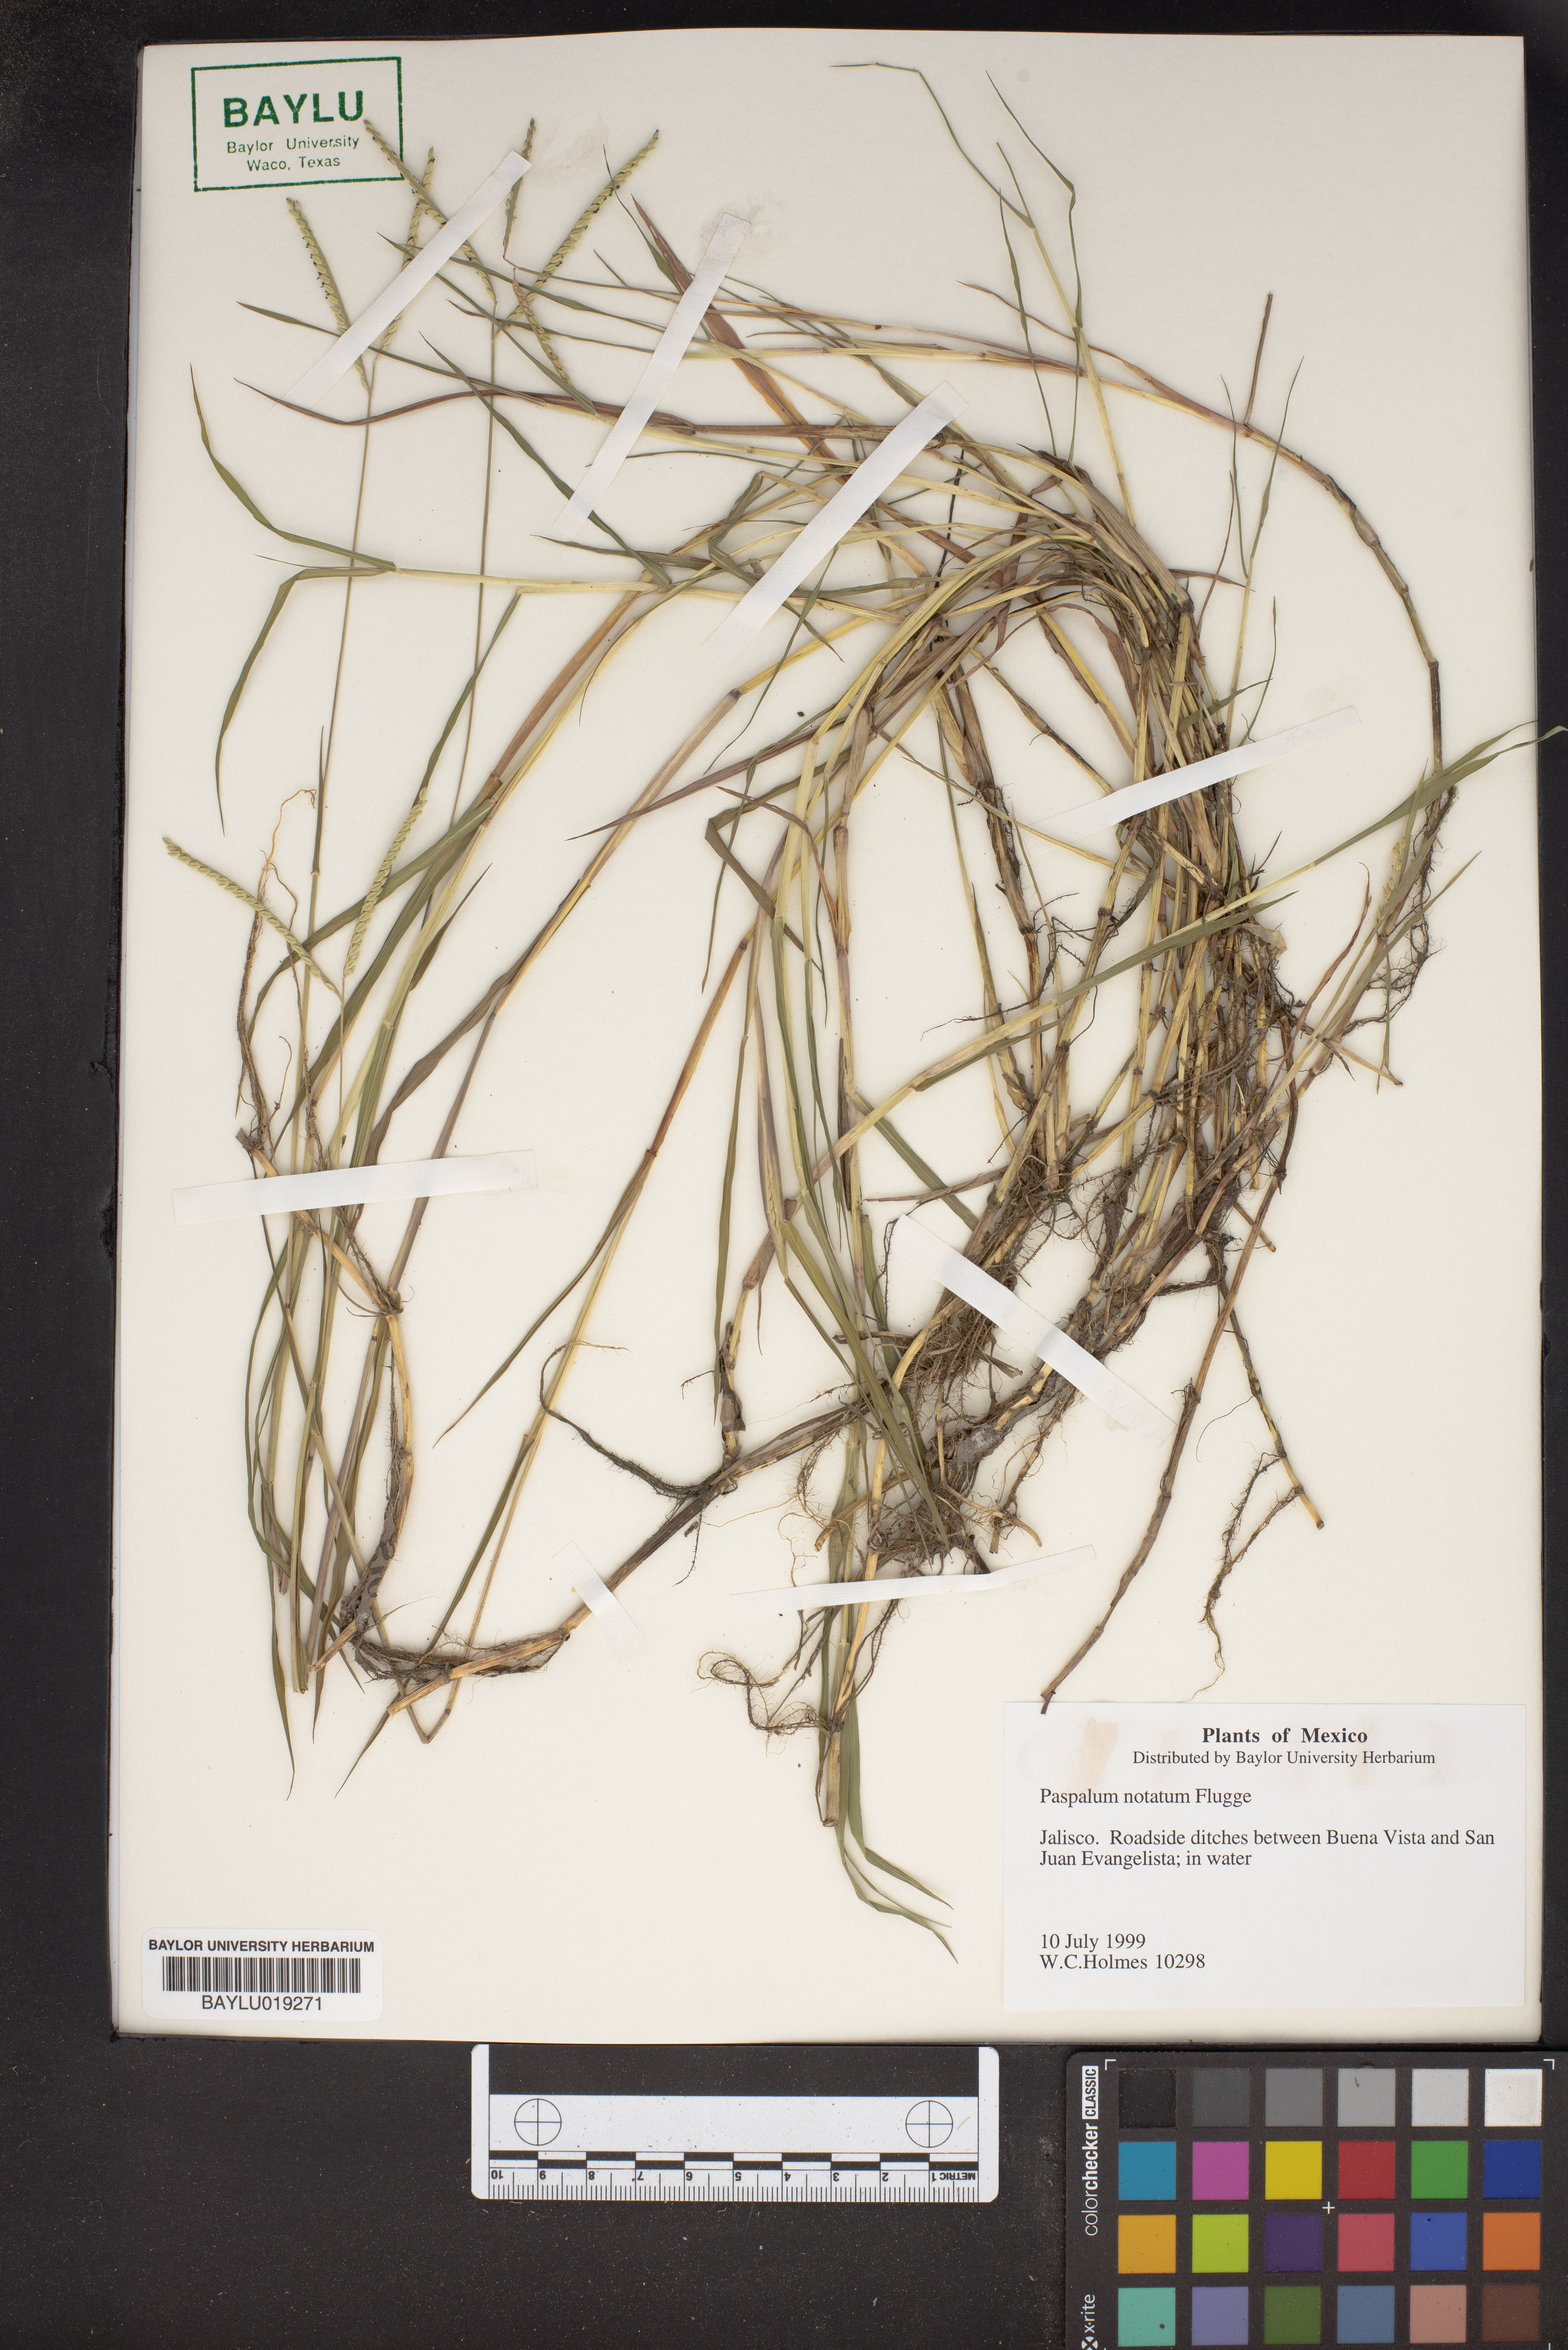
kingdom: Plantae
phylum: Tracheophyta
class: Liliopsida
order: Poales
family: Poaceae
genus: Paspalum
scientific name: Paspalum notatum
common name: Bahiagrass
